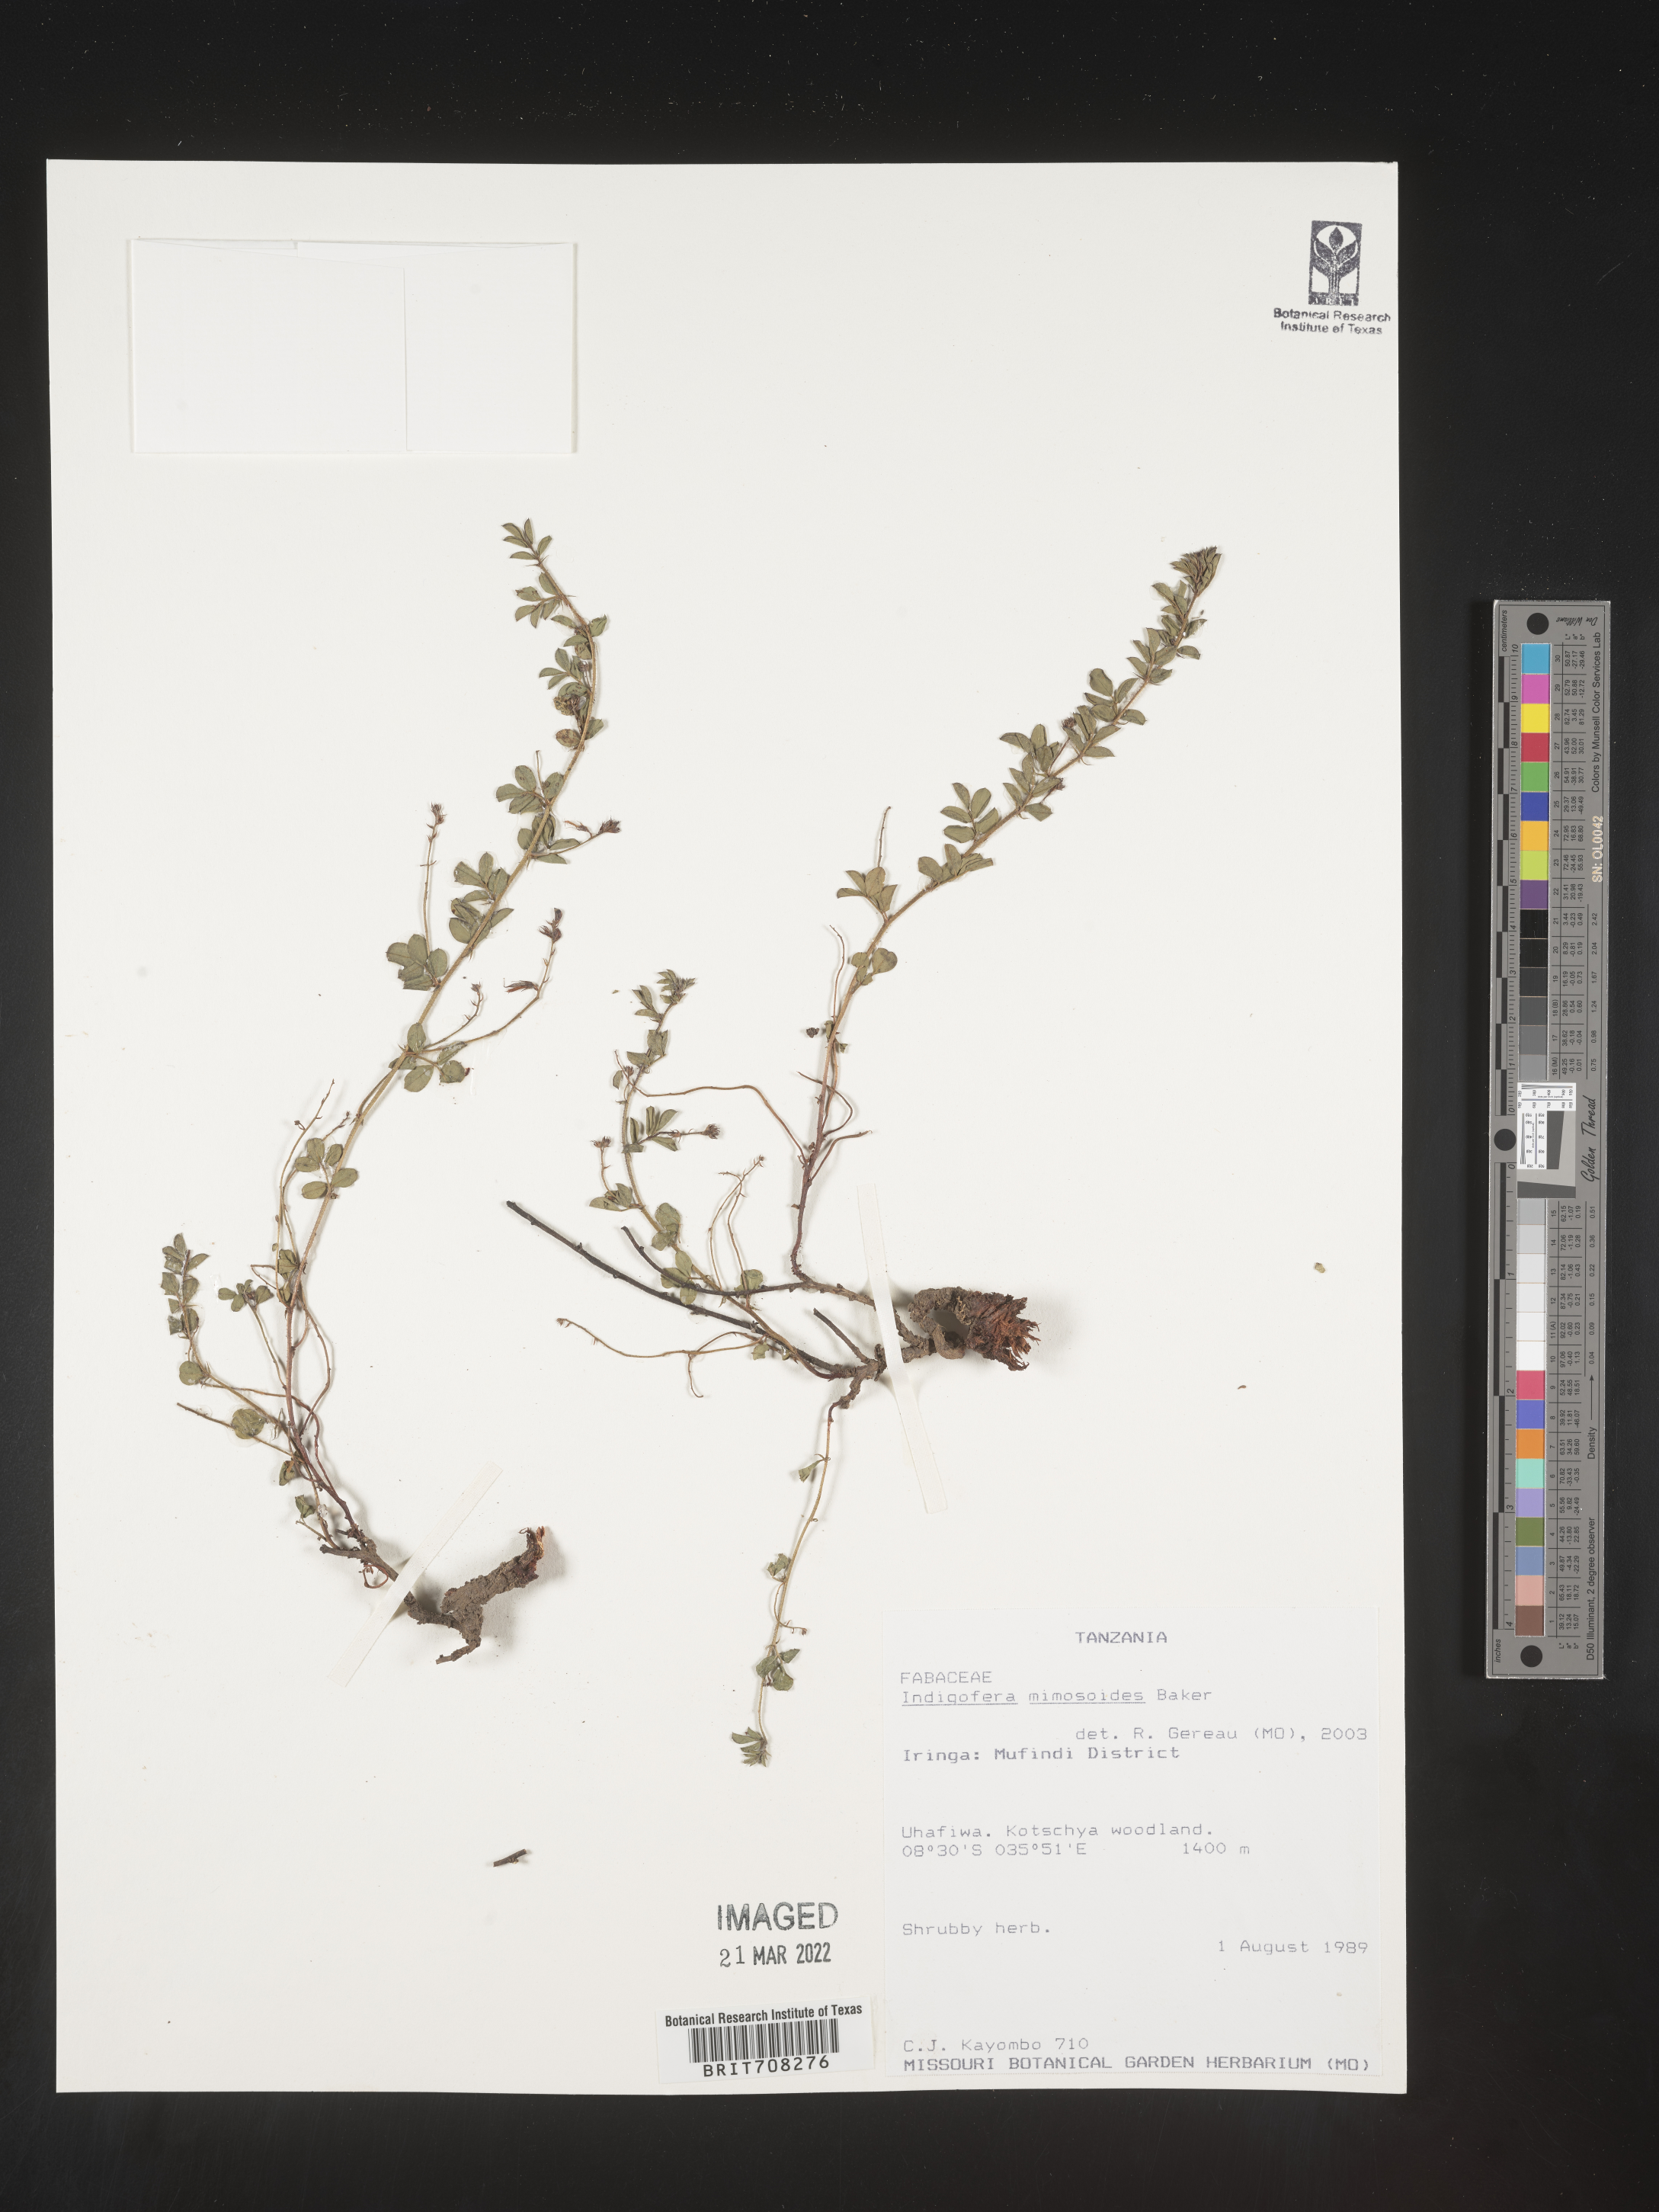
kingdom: Plantae
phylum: Tracheophyta
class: Magnoliopsida
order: Fabales
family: Fabaceae
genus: Indigofera
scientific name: Indigofera
